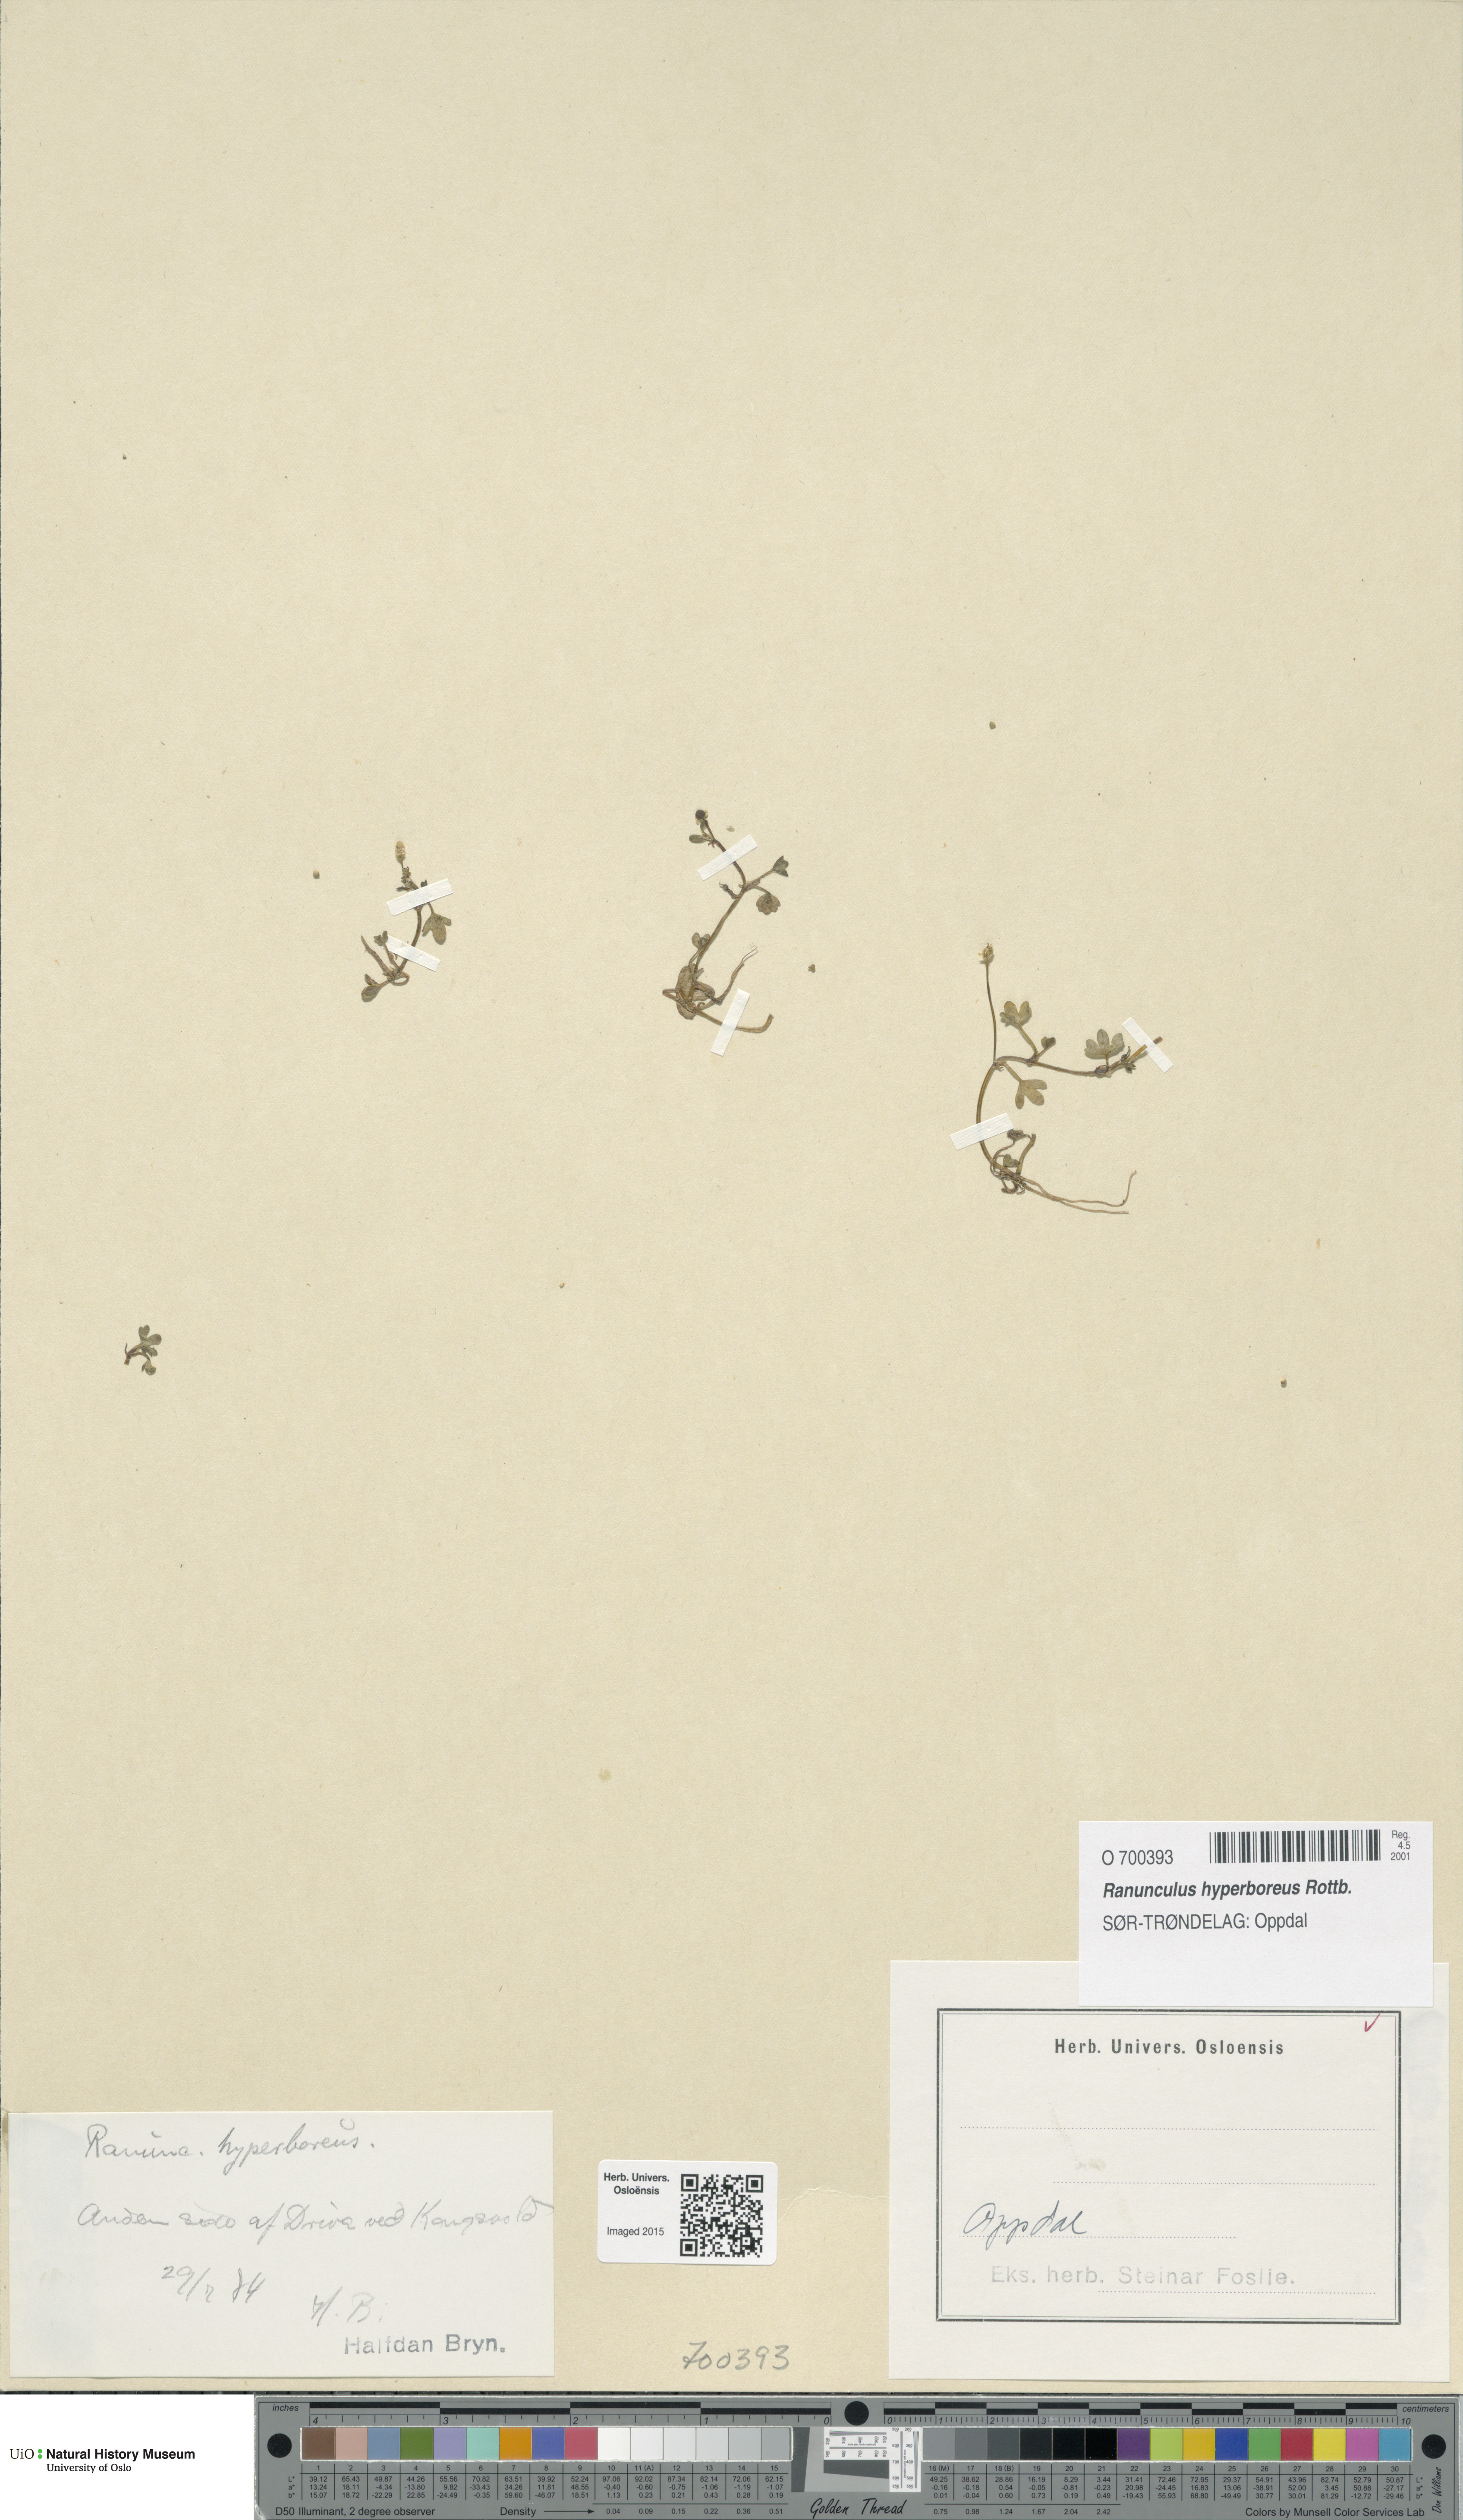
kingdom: Plantae
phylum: Tracheophyta
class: Magnoliopsida
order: Ranunculales
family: Ranunculaceae
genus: Ranunculus
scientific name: Ranunculus hyperboreus
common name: Arctic buttercup
